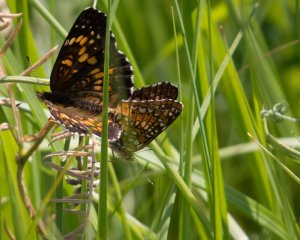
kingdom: Animalia
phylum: Arthropoda
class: Insecta
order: Lepidoptera
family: Nymphalidae
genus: Chlosyne
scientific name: Chlosyne harrisii
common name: Harris's Checkerspot
